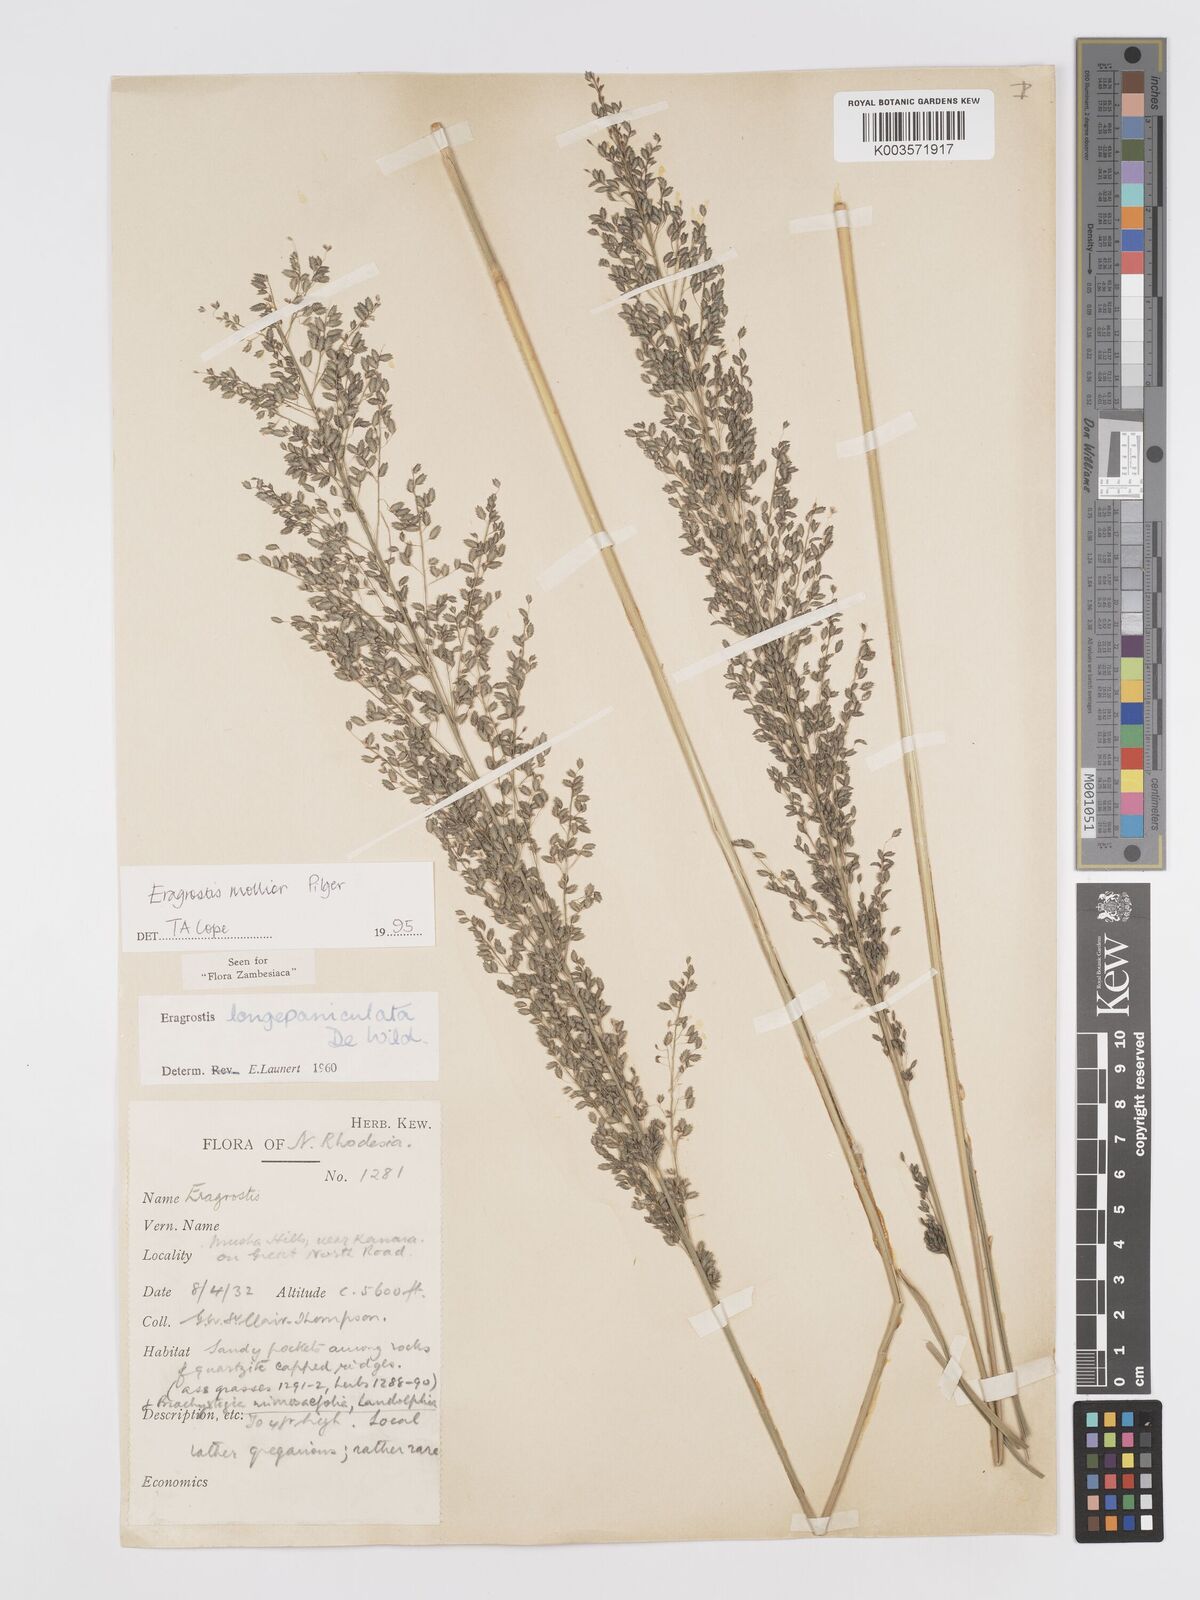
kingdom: Plantae
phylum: Tracheophyta
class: Liliopsida
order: Poales
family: Poaceae
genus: Eragrostis
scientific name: Eragrostis mollior
